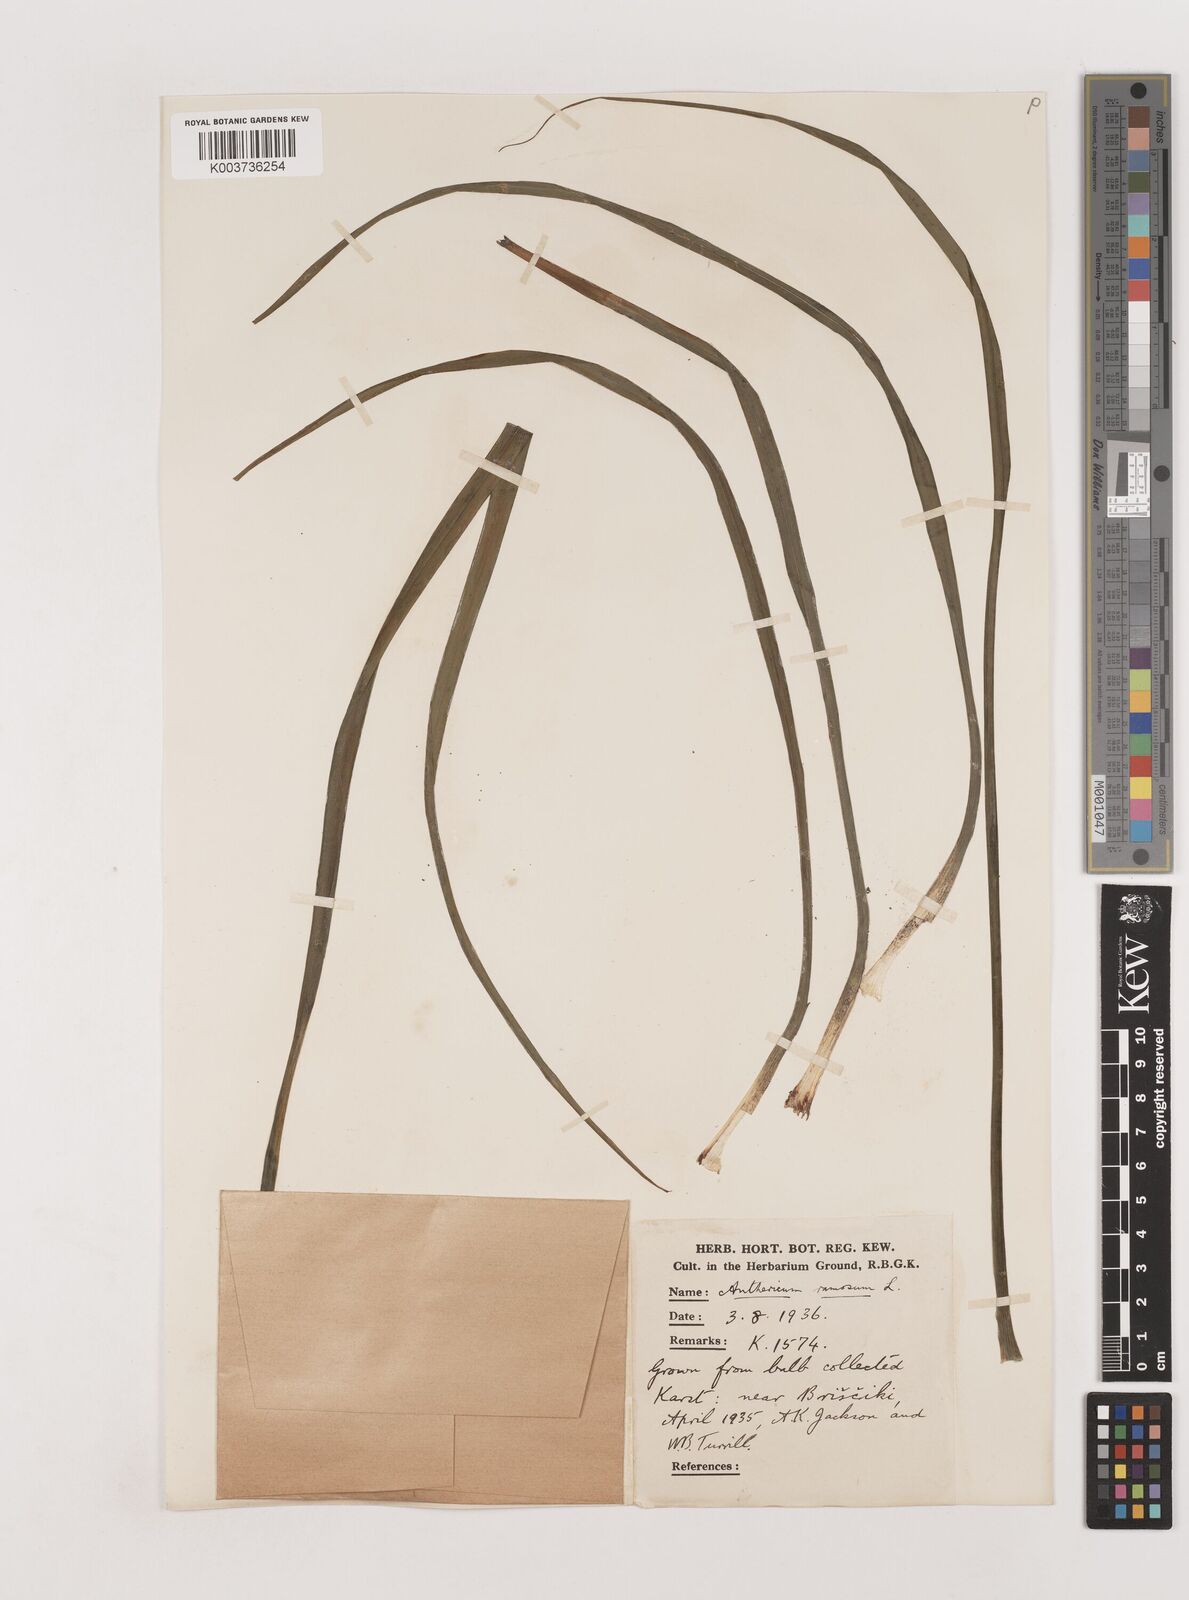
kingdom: Plantae
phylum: Tracheophyta
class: Liliopsida
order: Asparagales
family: Asparagaceae
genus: Anthericum
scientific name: Anthericum ramosum
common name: Branched st. bernard's-lily
